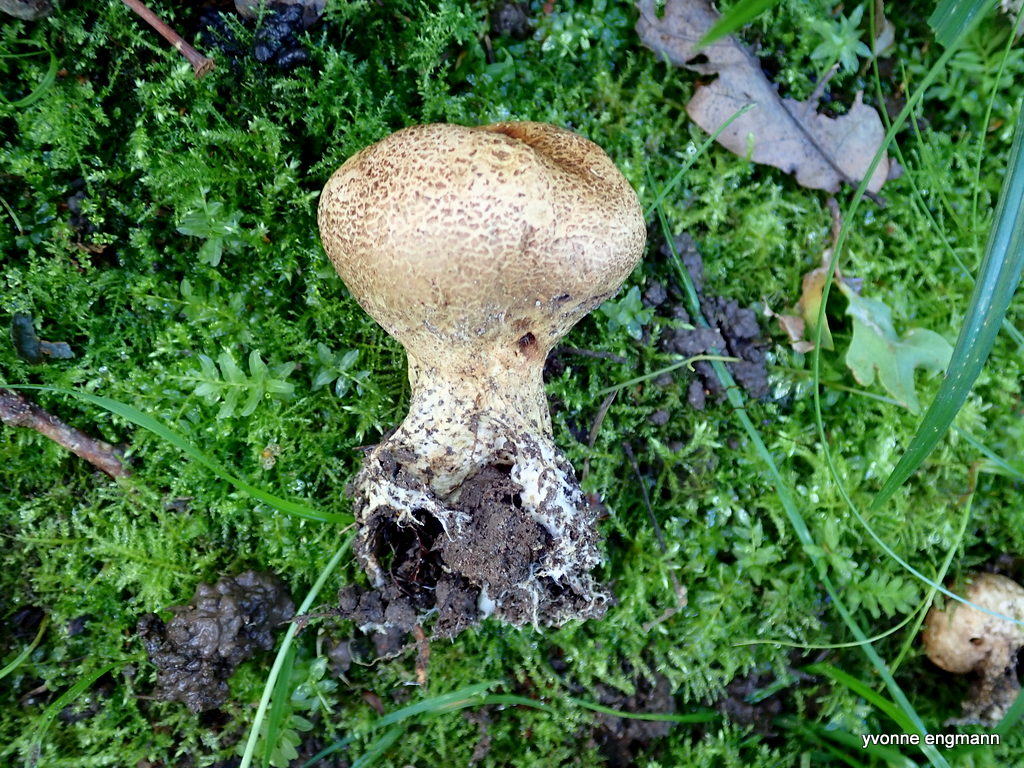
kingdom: Fungi
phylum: Basidiomycota
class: Agaricomycetes
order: Boletales
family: Sclerodermataceae
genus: Scleroderma
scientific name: Scleroderma verrucosum
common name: stilket bruskbold
